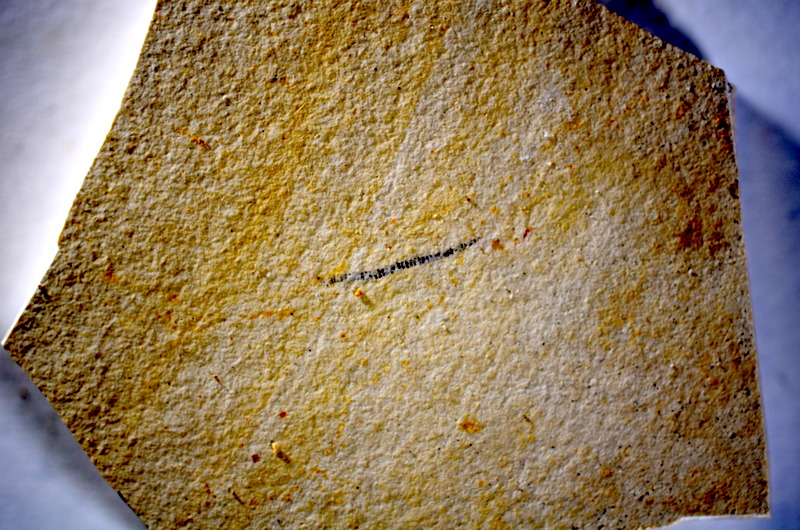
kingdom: Animalia
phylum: Chordata
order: Salmoniformes
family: Orthogonikleithridae
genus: Orthogonikleithrus
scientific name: Orthogonikleithrus hoelli
